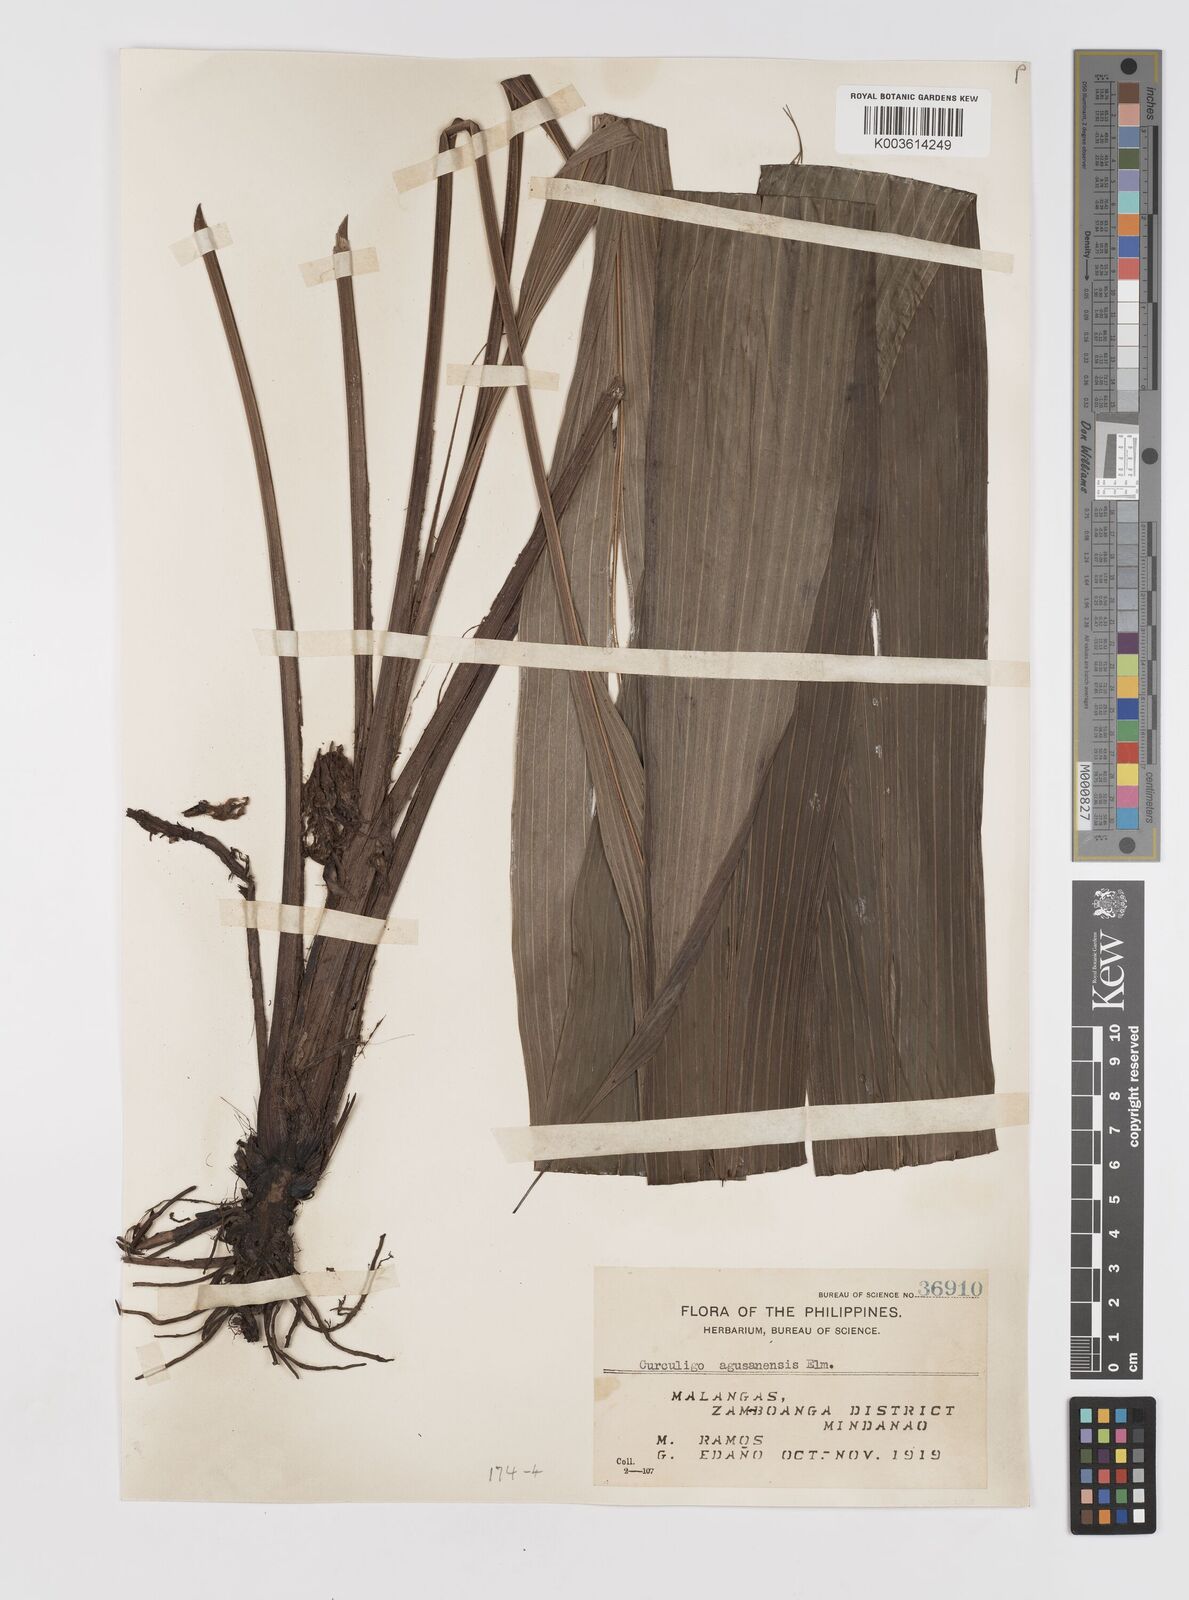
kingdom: Plantae
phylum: Tracheophyta
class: Liliopsida
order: Asparagales
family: Hypoxidaceae
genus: Curculigo
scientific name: Curculigo latifolia
